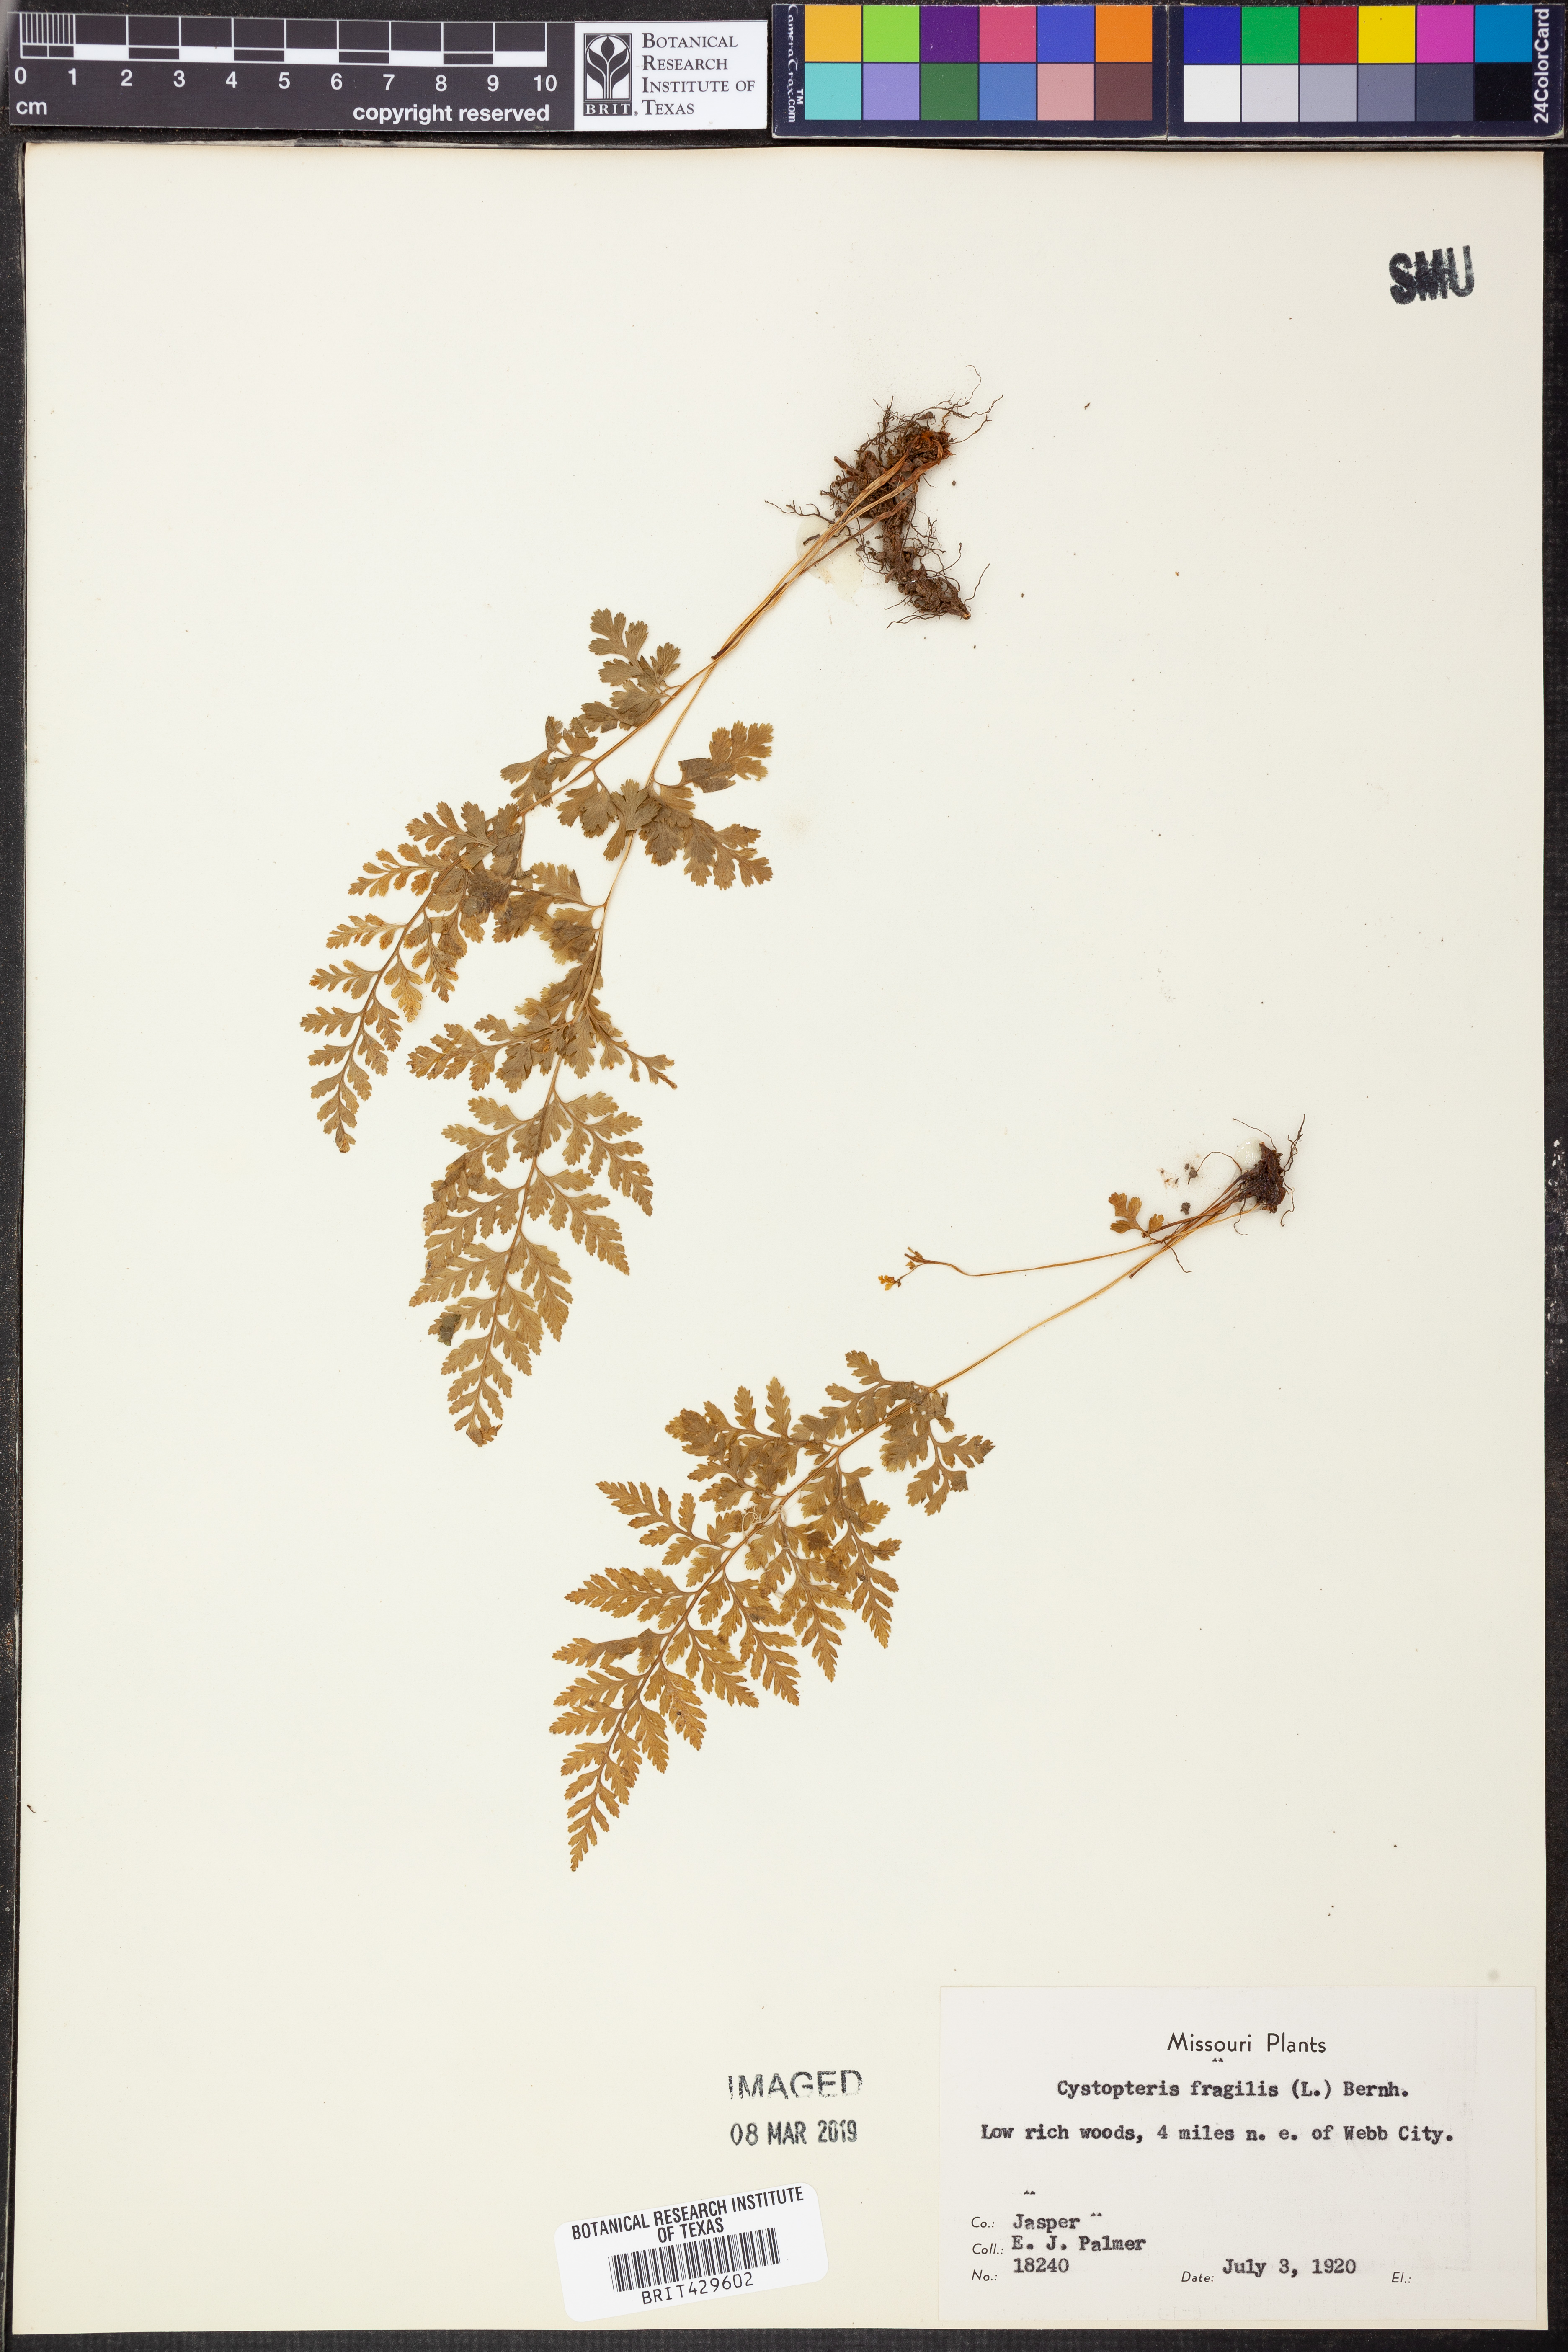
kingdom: Plantae
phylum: Tracheophyta
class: Polypodiopsida
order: Polypodiales
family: Cystopteridaceae
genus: Cystopteris
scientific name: Cystopteris fragilis
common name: Brittle bladder fern
